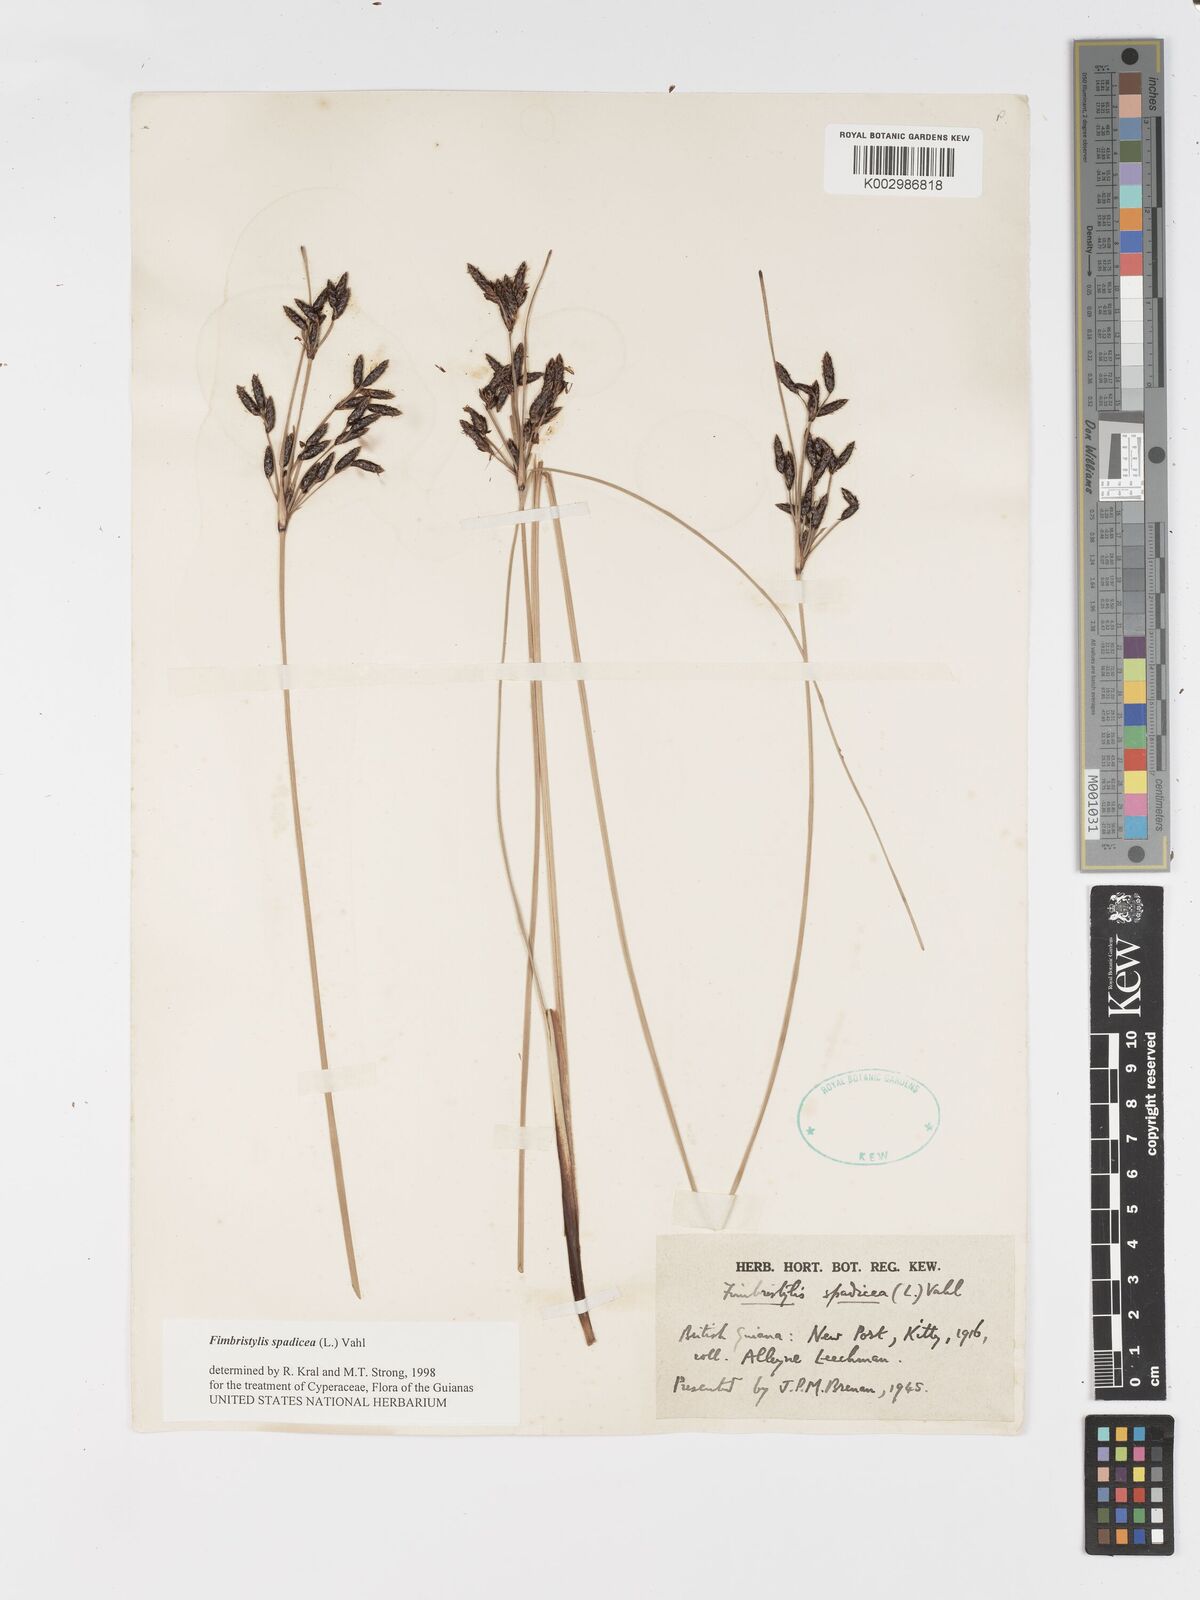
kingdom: Plantae
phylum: Tracheophyta
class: Liliopsida
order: Poales
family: Cyperaceae
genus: Fimbristylis
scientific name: Fimbristylis spadicea
